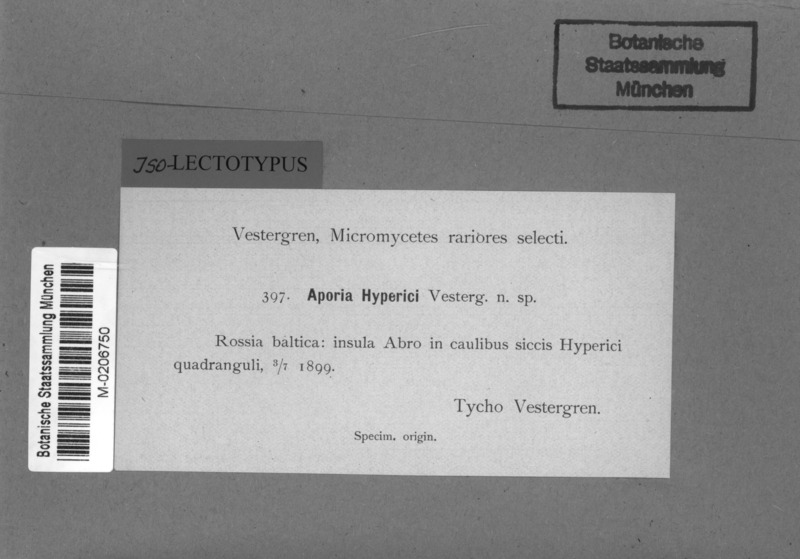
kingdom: Fungi
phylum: Ascomycota
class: Leotiomycetes
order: Helotiales
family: Calloriaceae
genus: Ploettnera
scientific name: Ploettnera hyperici
